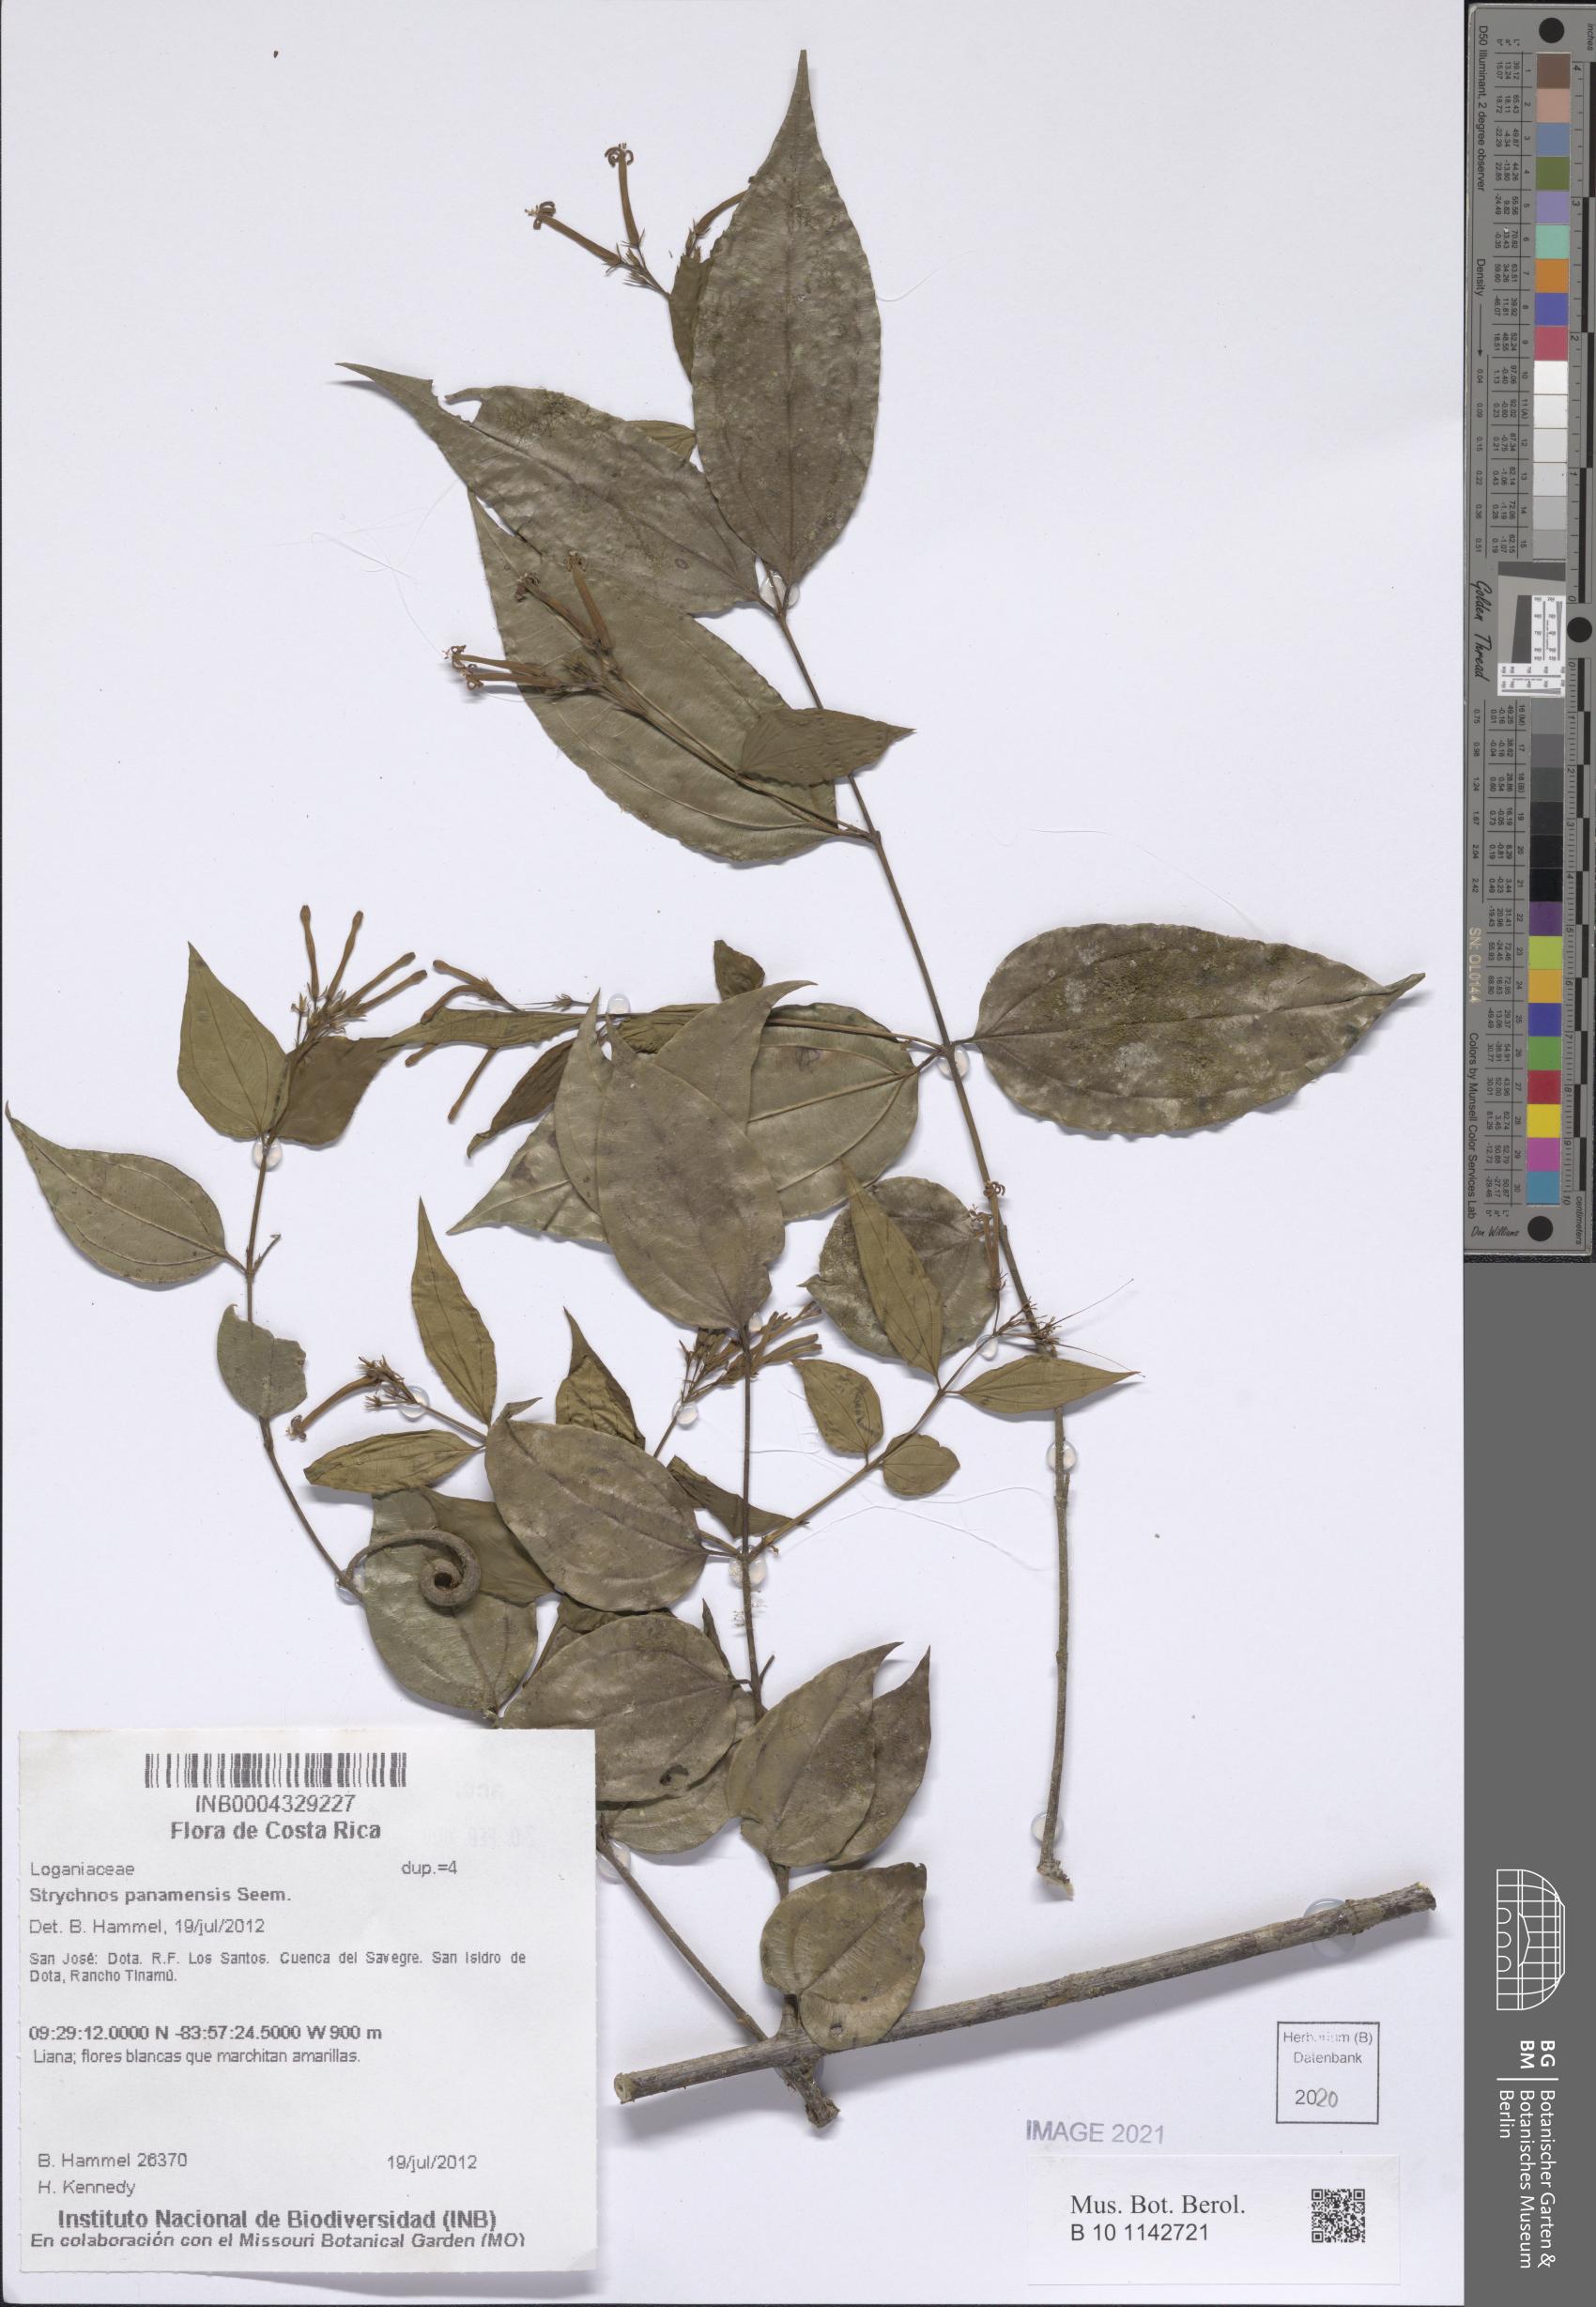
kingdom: Plantae
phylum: Tracheophyta
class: Magnoliopsida
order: Gentianales
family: Loganiaceae
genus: Strychnos
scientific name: Strychnos panamensis
